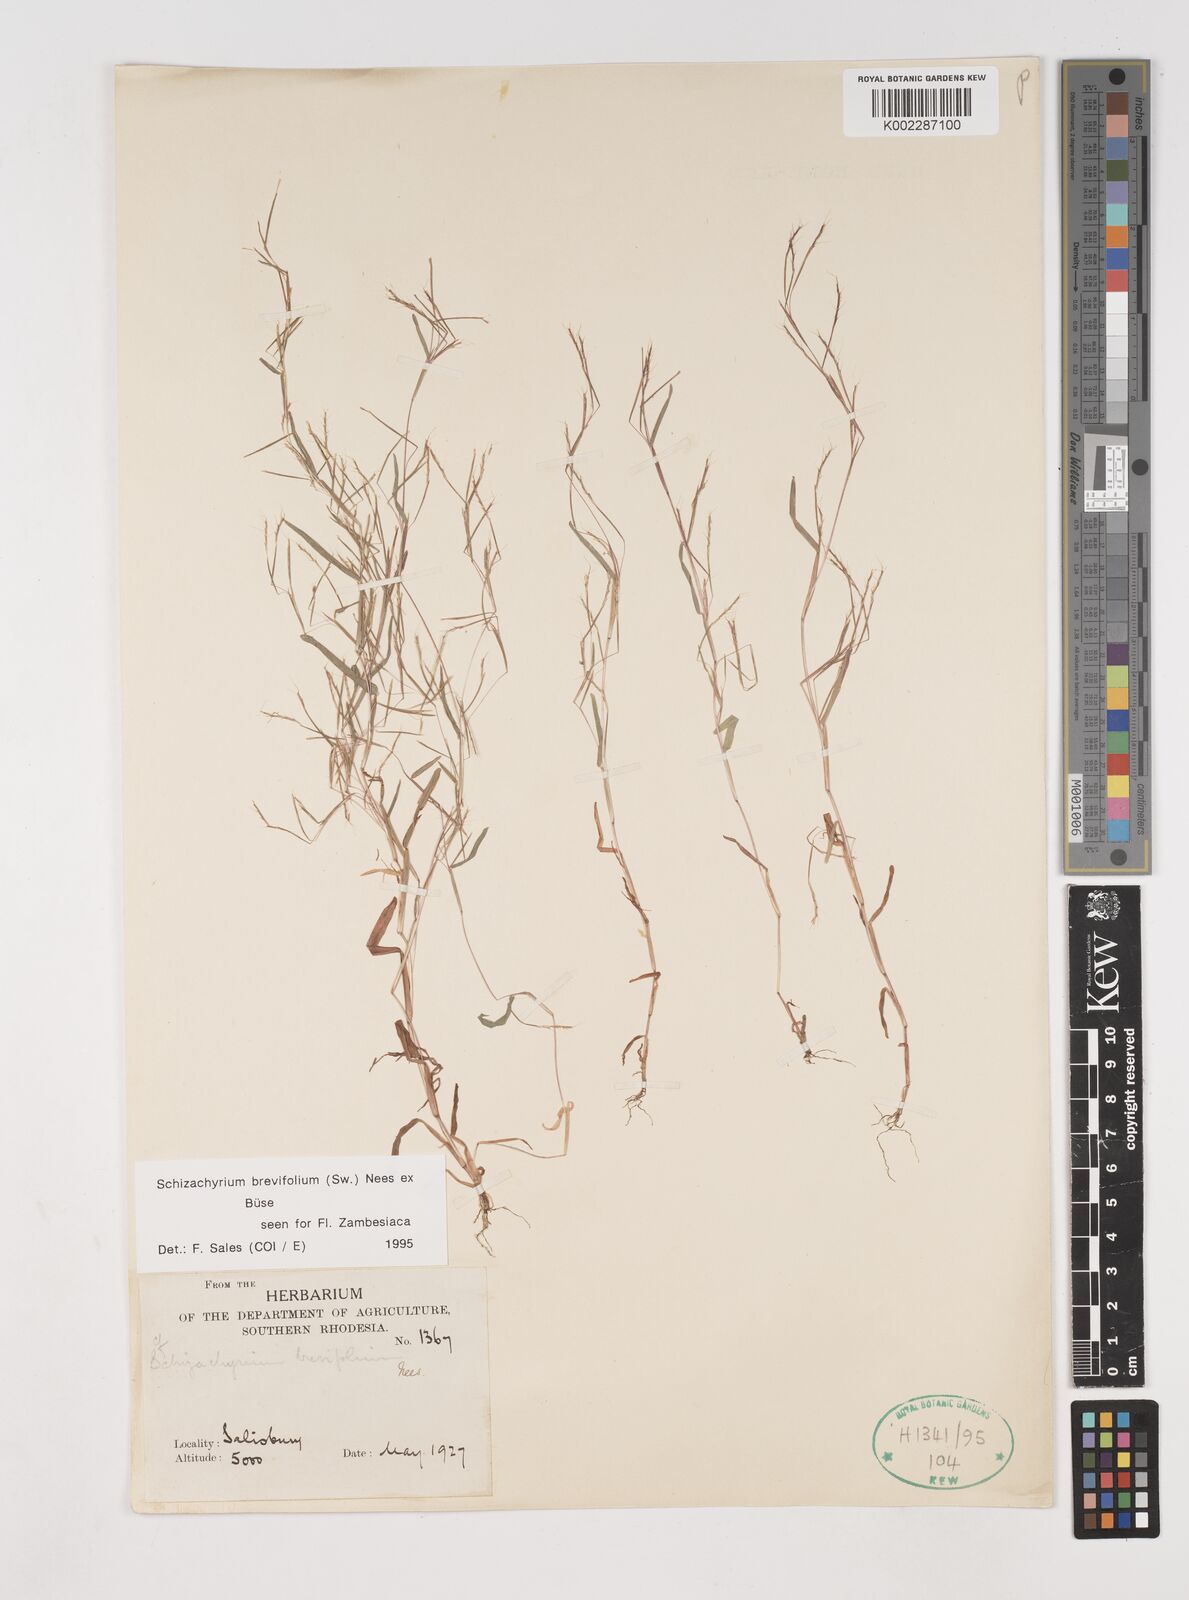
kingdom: Plantae
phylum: Tracheophyta
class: Liliopsida
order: Poales
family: Poaceae
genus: Schizachyrium
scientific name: Schizachyrium brevifolium
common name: Serillo dulce
